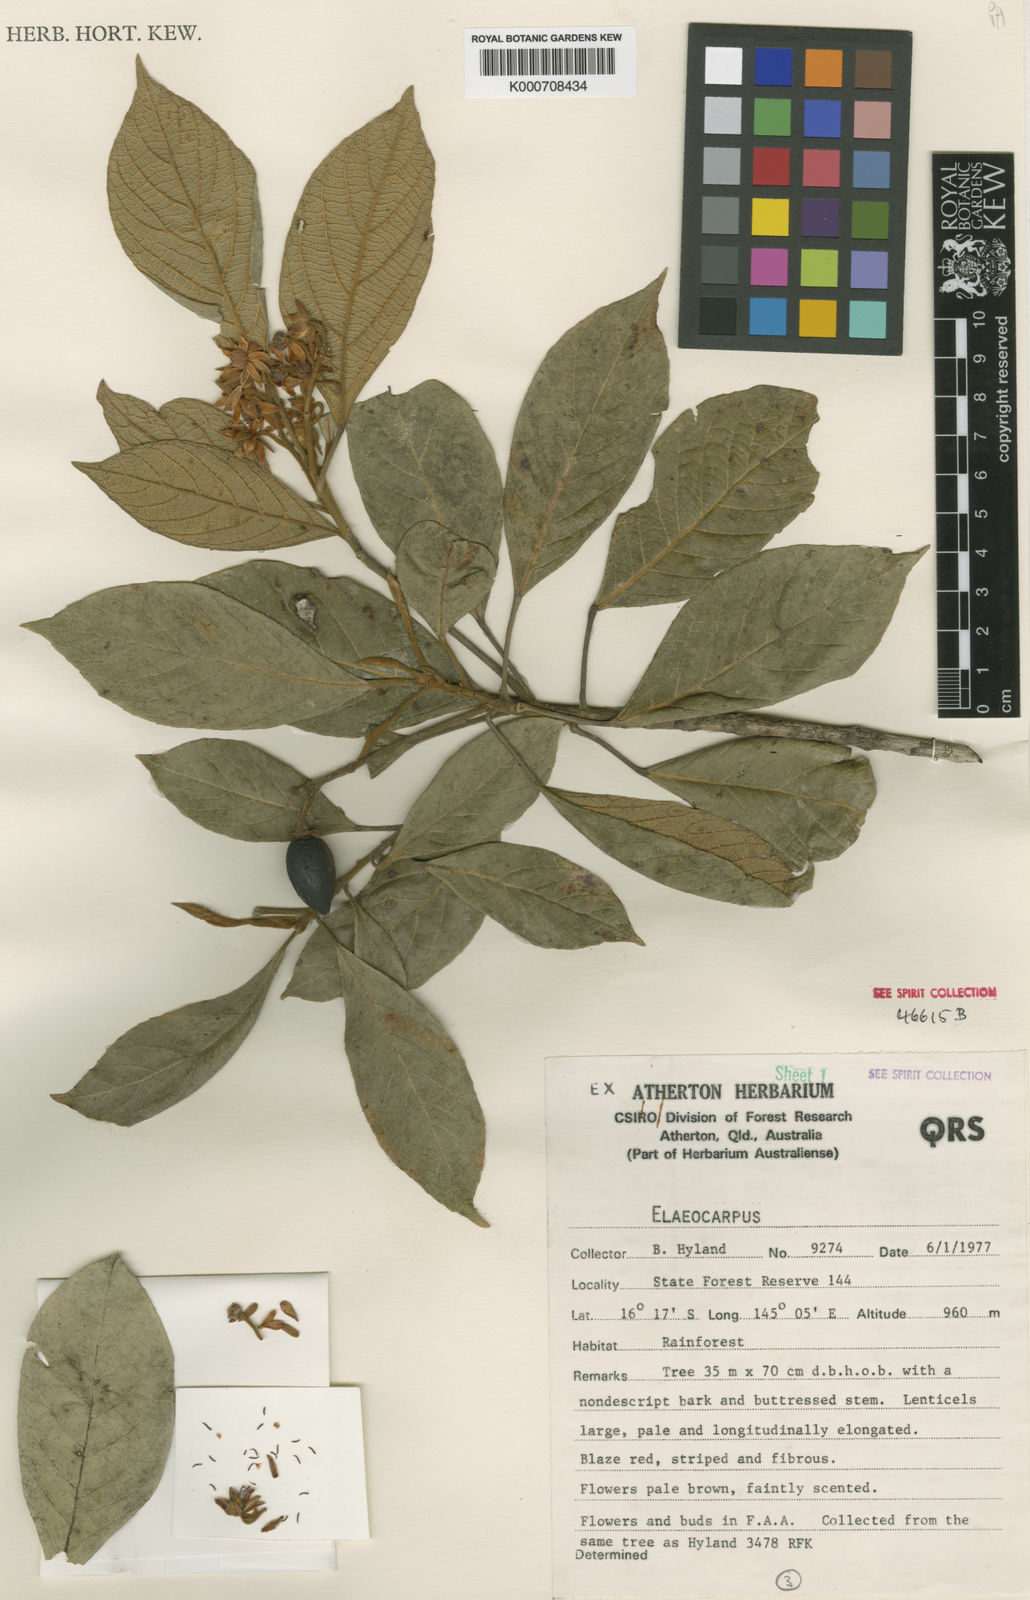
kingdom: Plantae
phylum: Tracheophyta
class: Magnoliopsida
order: Oxalidales
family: Elaeocarpaceae
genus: Elaeocarpus
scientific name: Elaeocarpus thelmae
